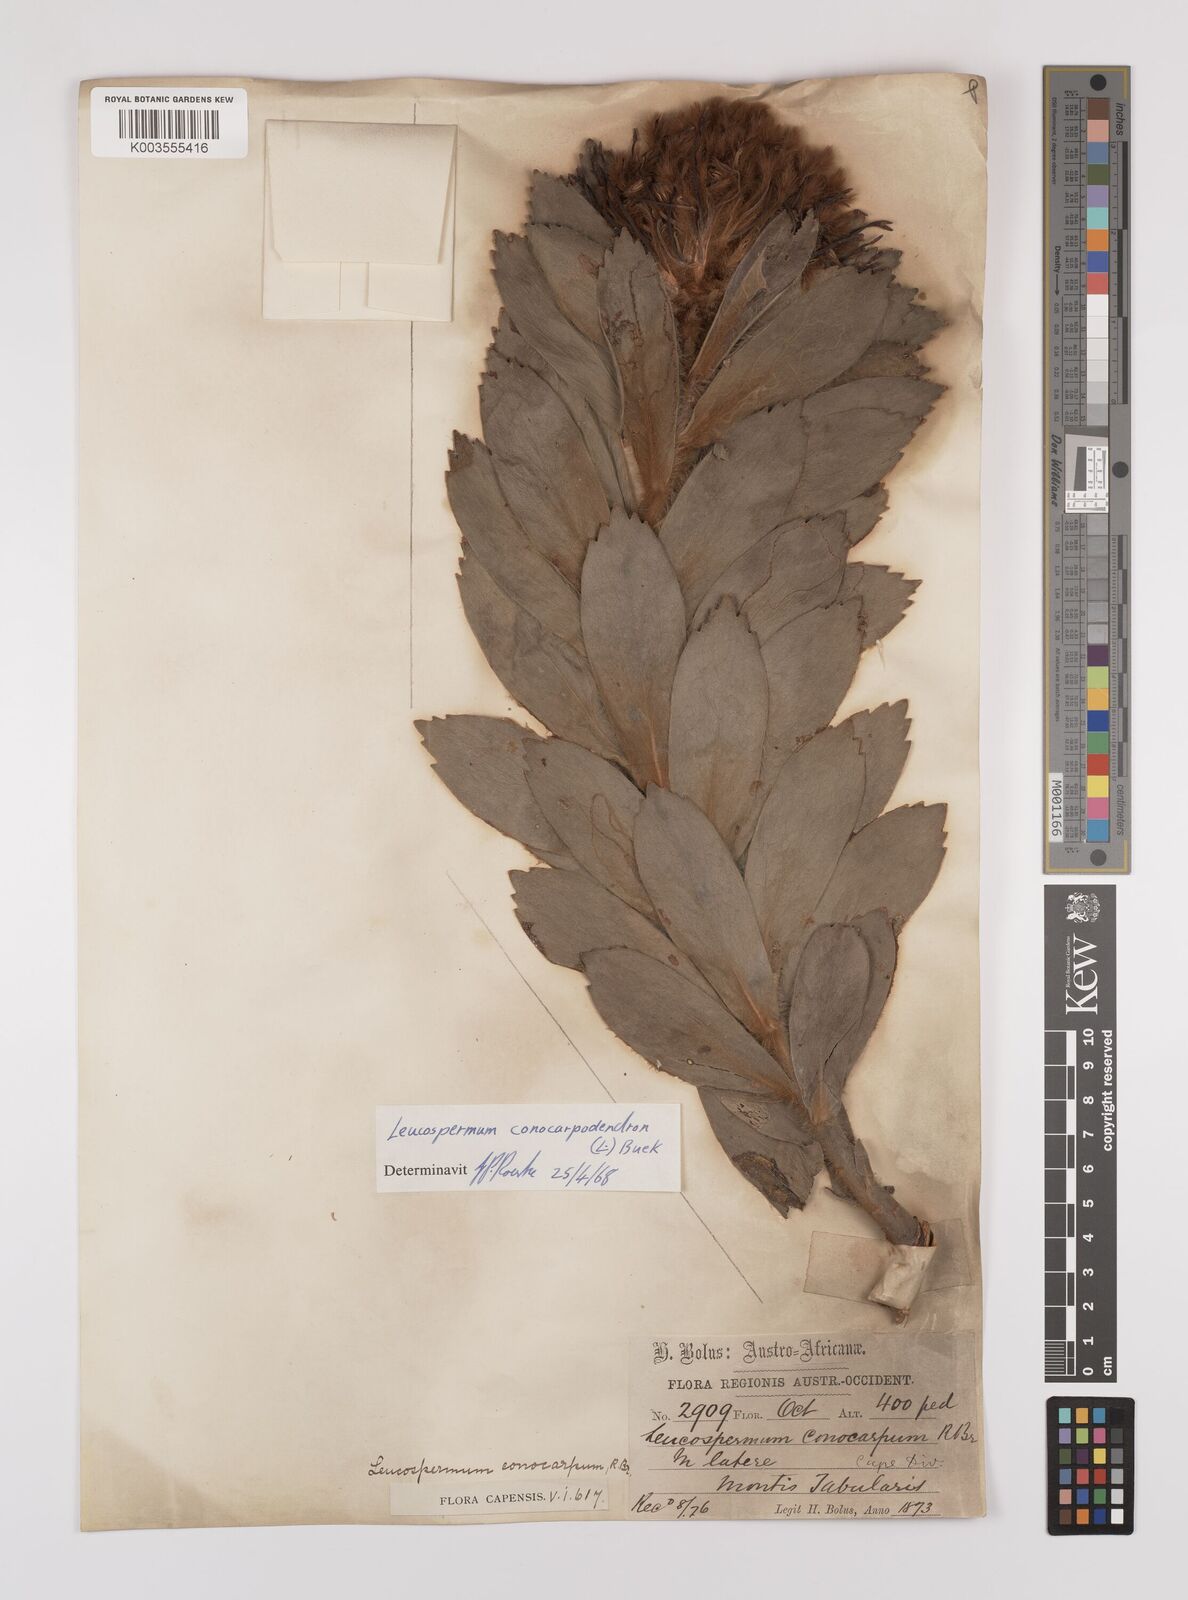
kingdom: Plantae
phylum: Tracheophyta
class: Magnoliopsida
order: Proteales
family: Proteaceae
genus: Leucospermum
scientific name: Leucospermum conocarpodendron
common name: Tree pincushion
